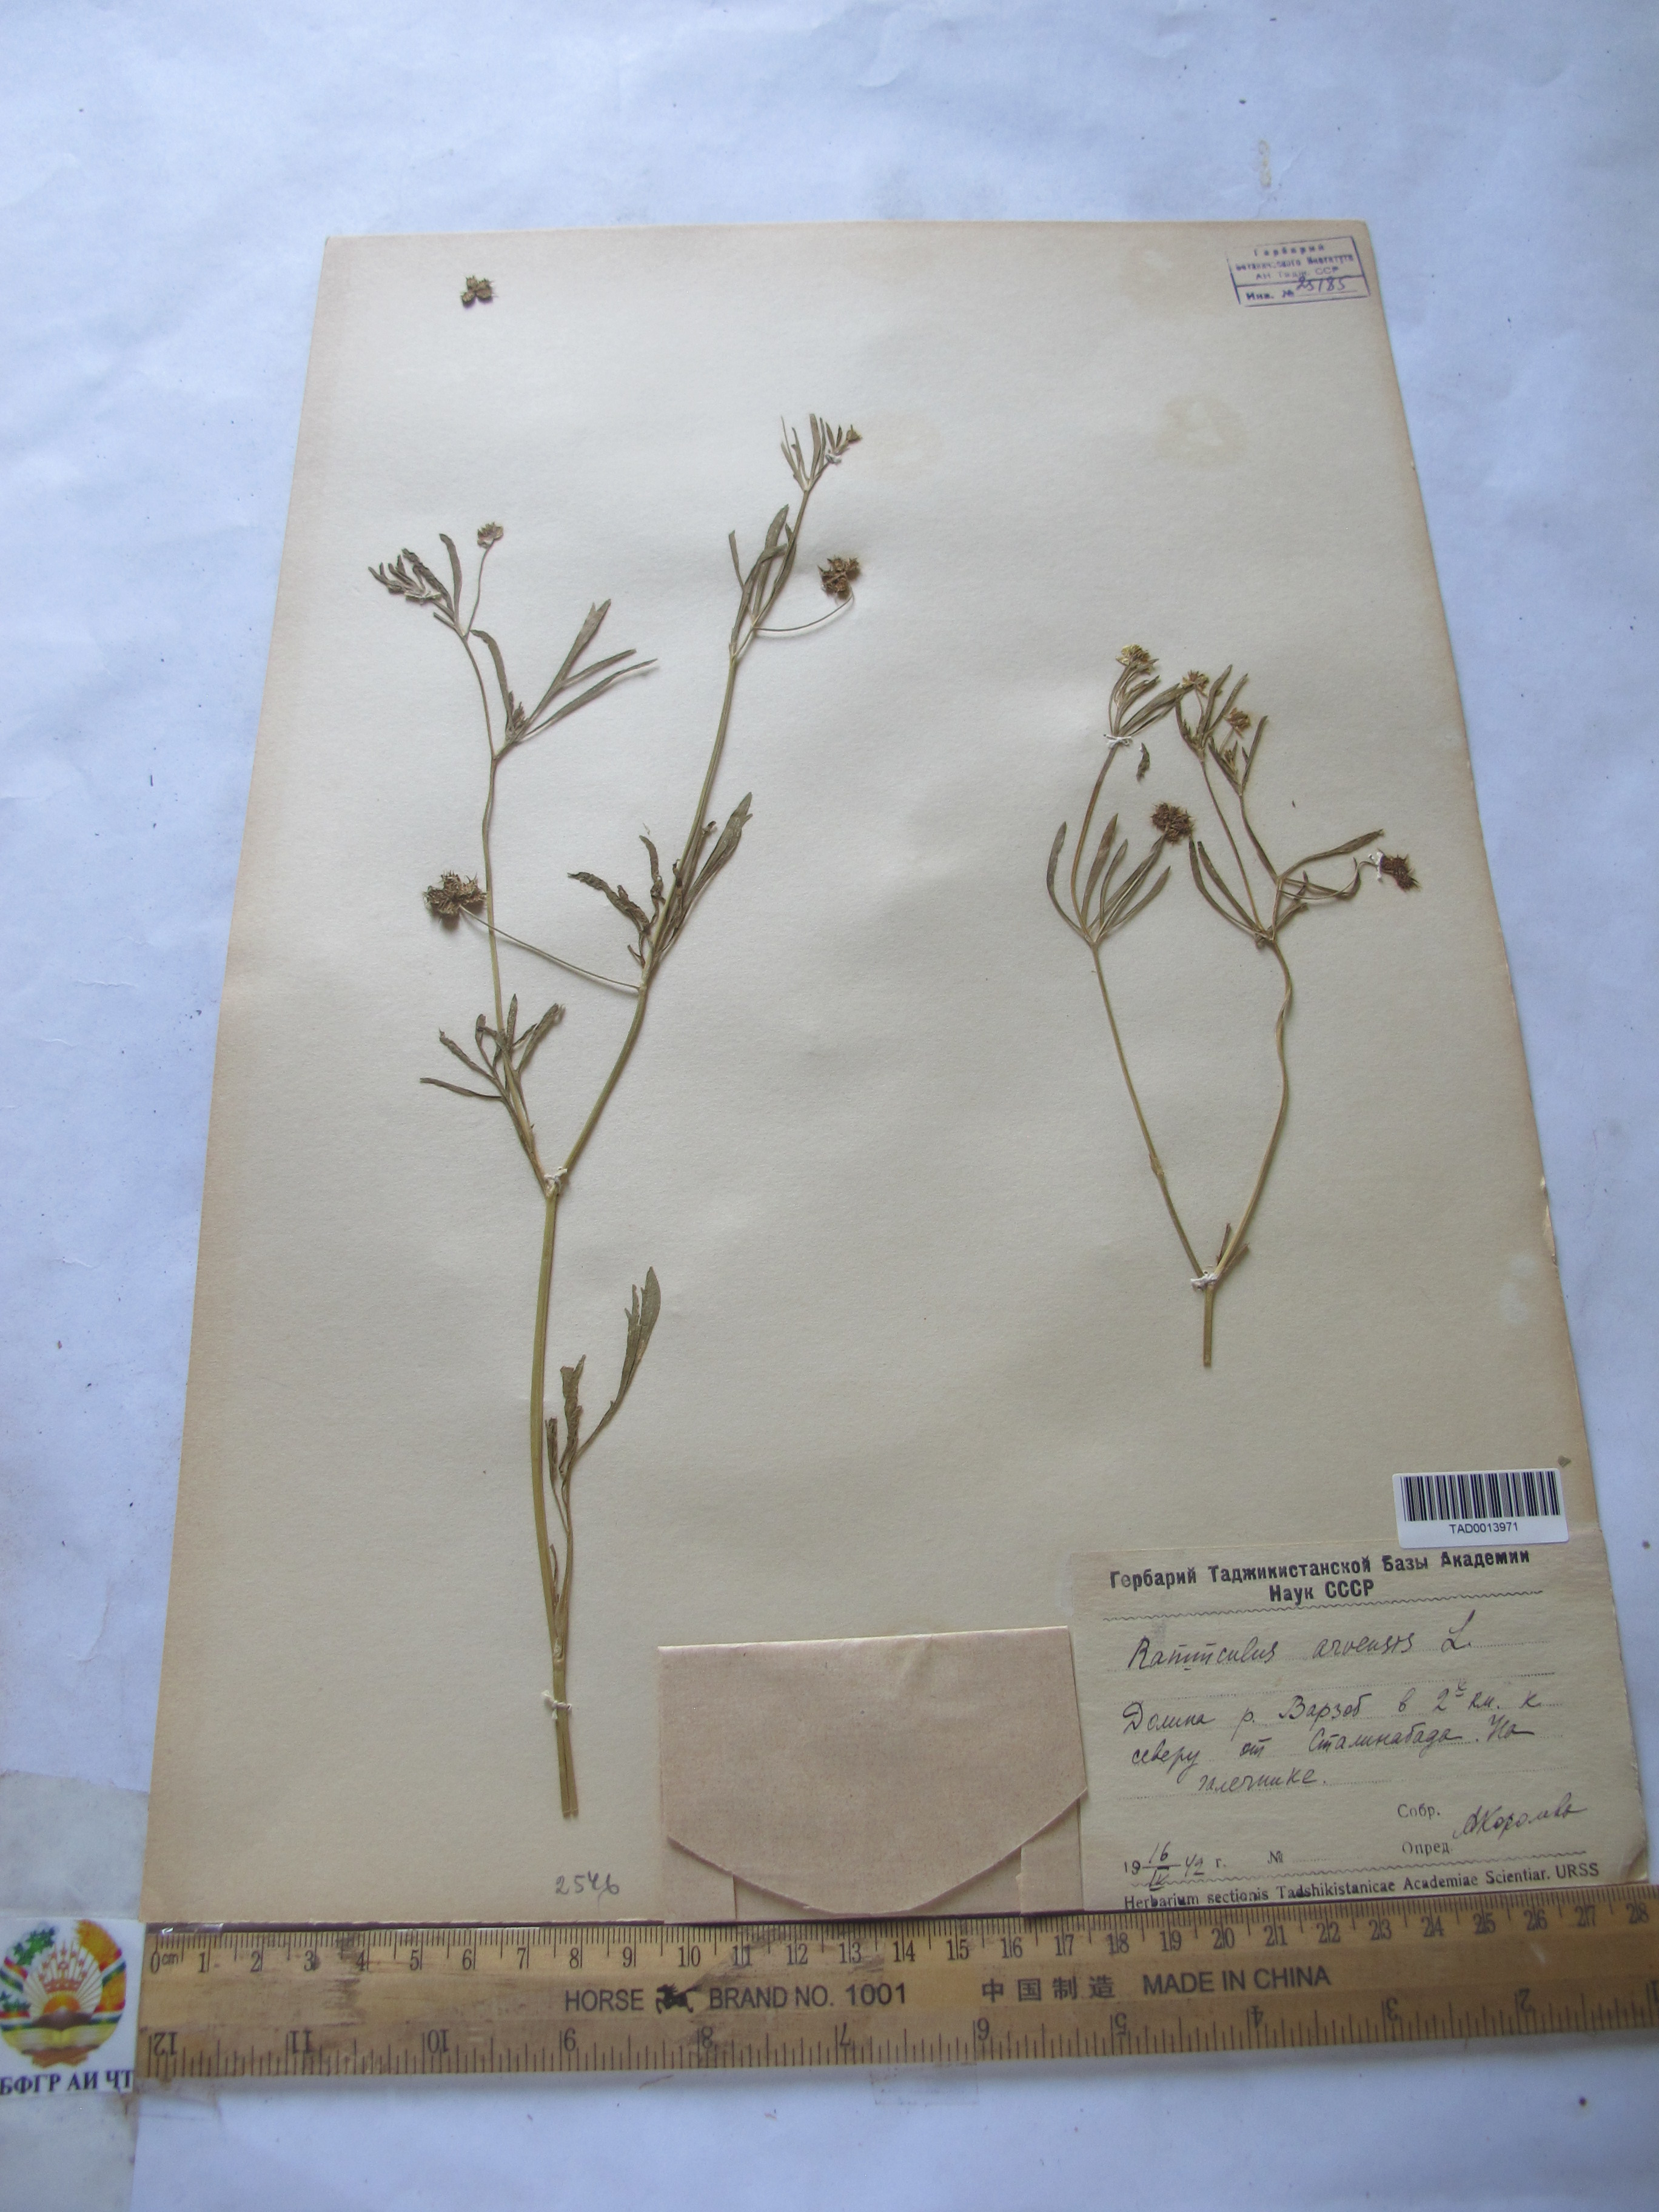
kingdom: Plantae
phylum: Tracheophyta
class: Magnoliopsida
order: Ranunculales
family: Ranunculaceae
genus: Ranunculus
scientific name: Ranunculus arvensis
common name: Corn buttercup
